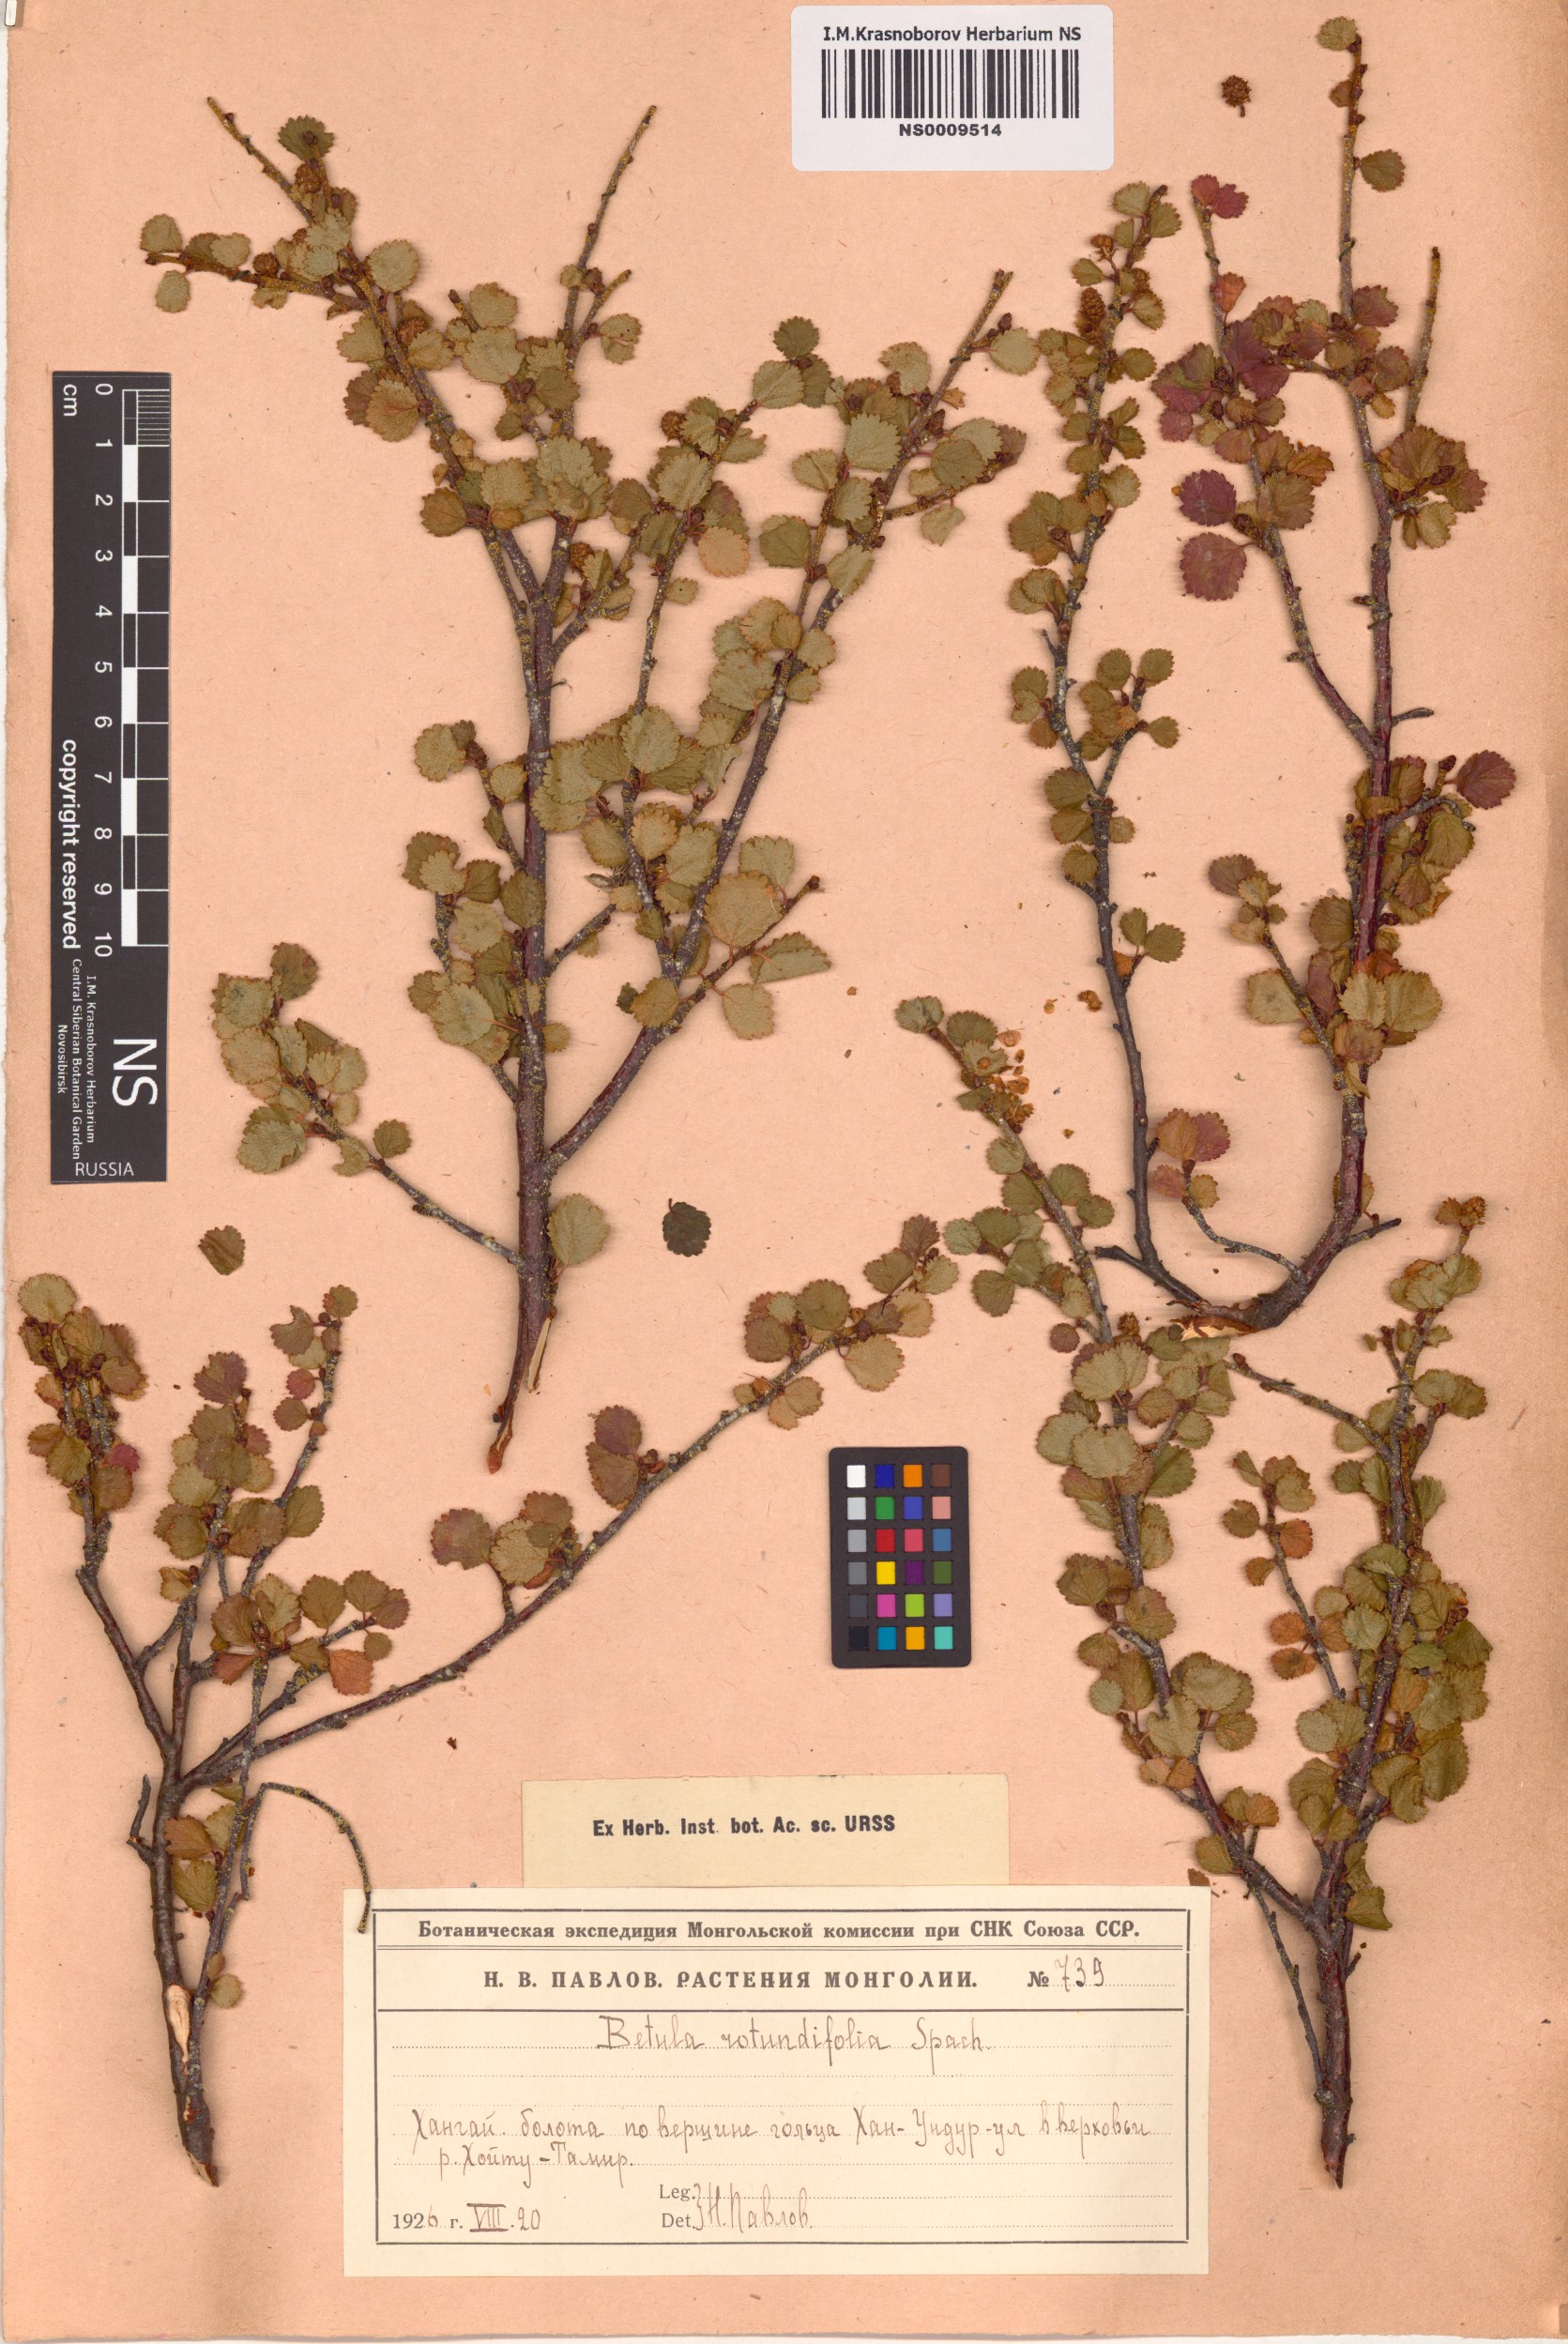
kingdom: Plantae
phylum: Tracheophyta
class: Magnoliopsida
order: Fagales
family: Betulaceae
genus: Betula
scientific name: Betula glandulosa
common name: Dwarf birch
